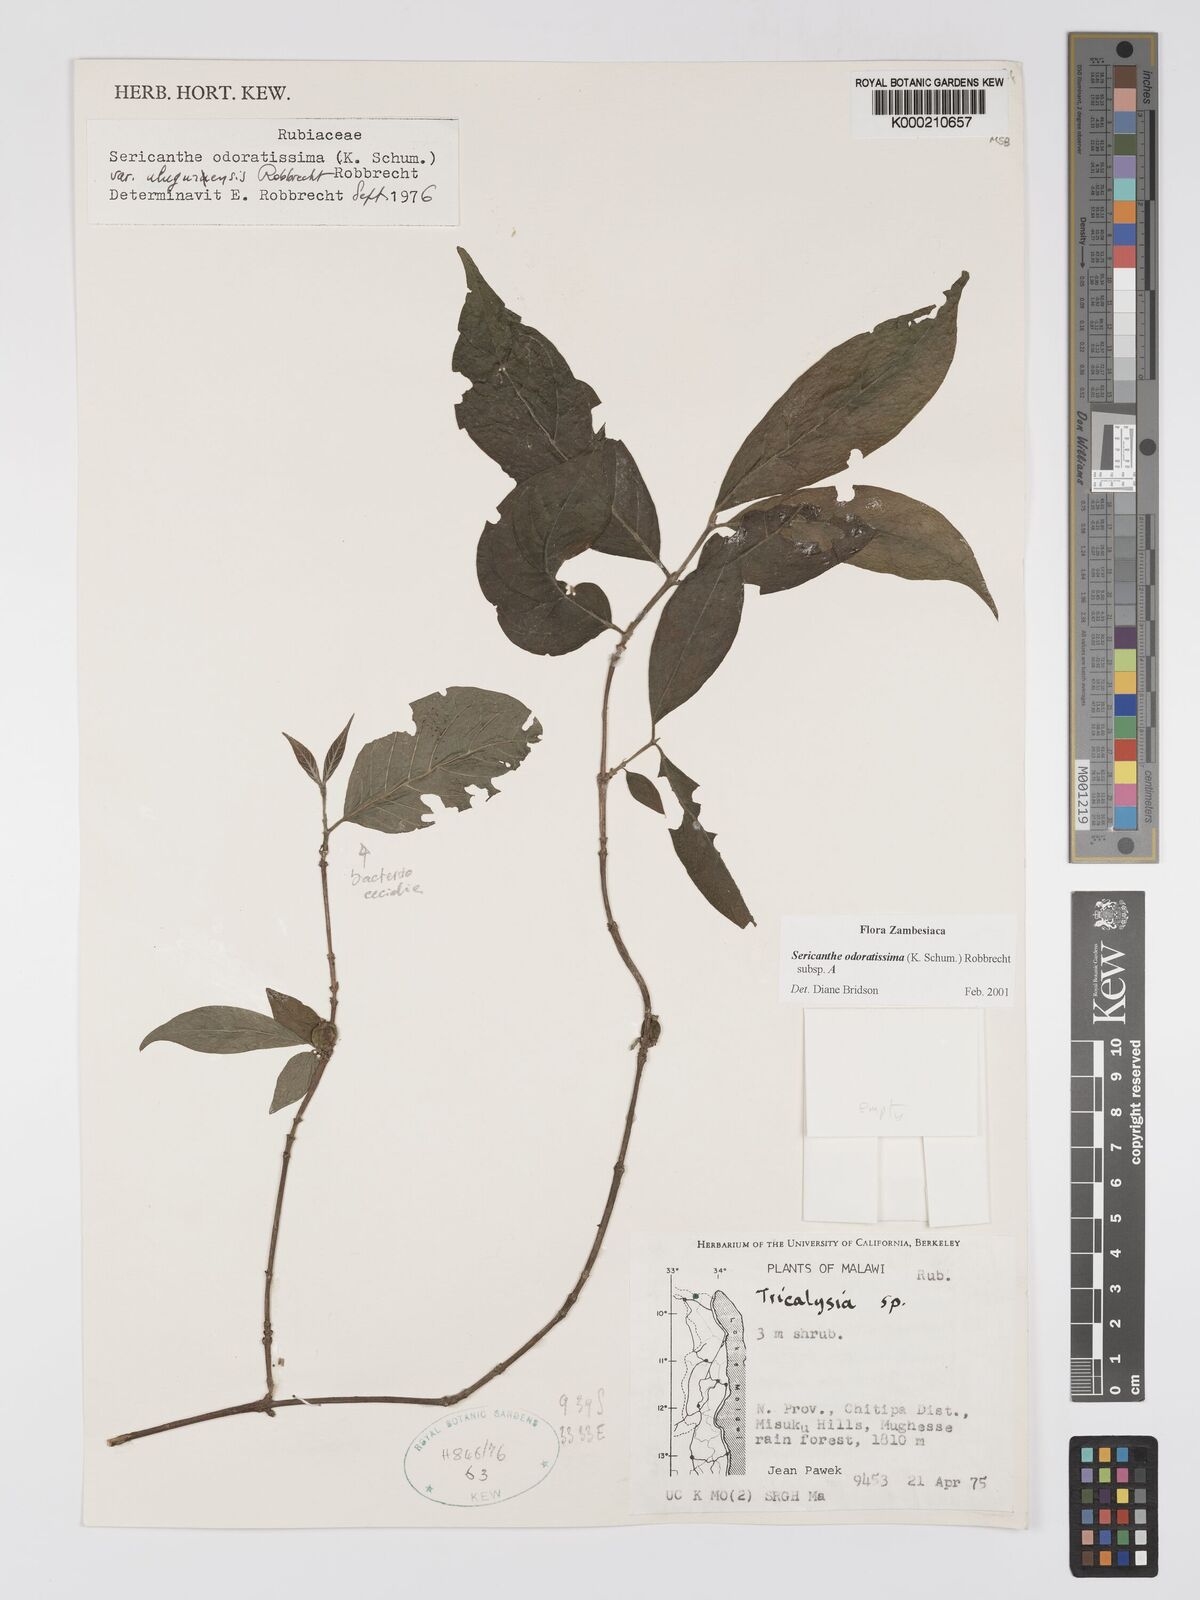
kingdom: Plantae
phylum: Tracheophyta
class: Magnoliopsida
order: Gentianales
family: Rubiaceae
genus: Sericanthe
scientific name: Sericanthe odoratissima
